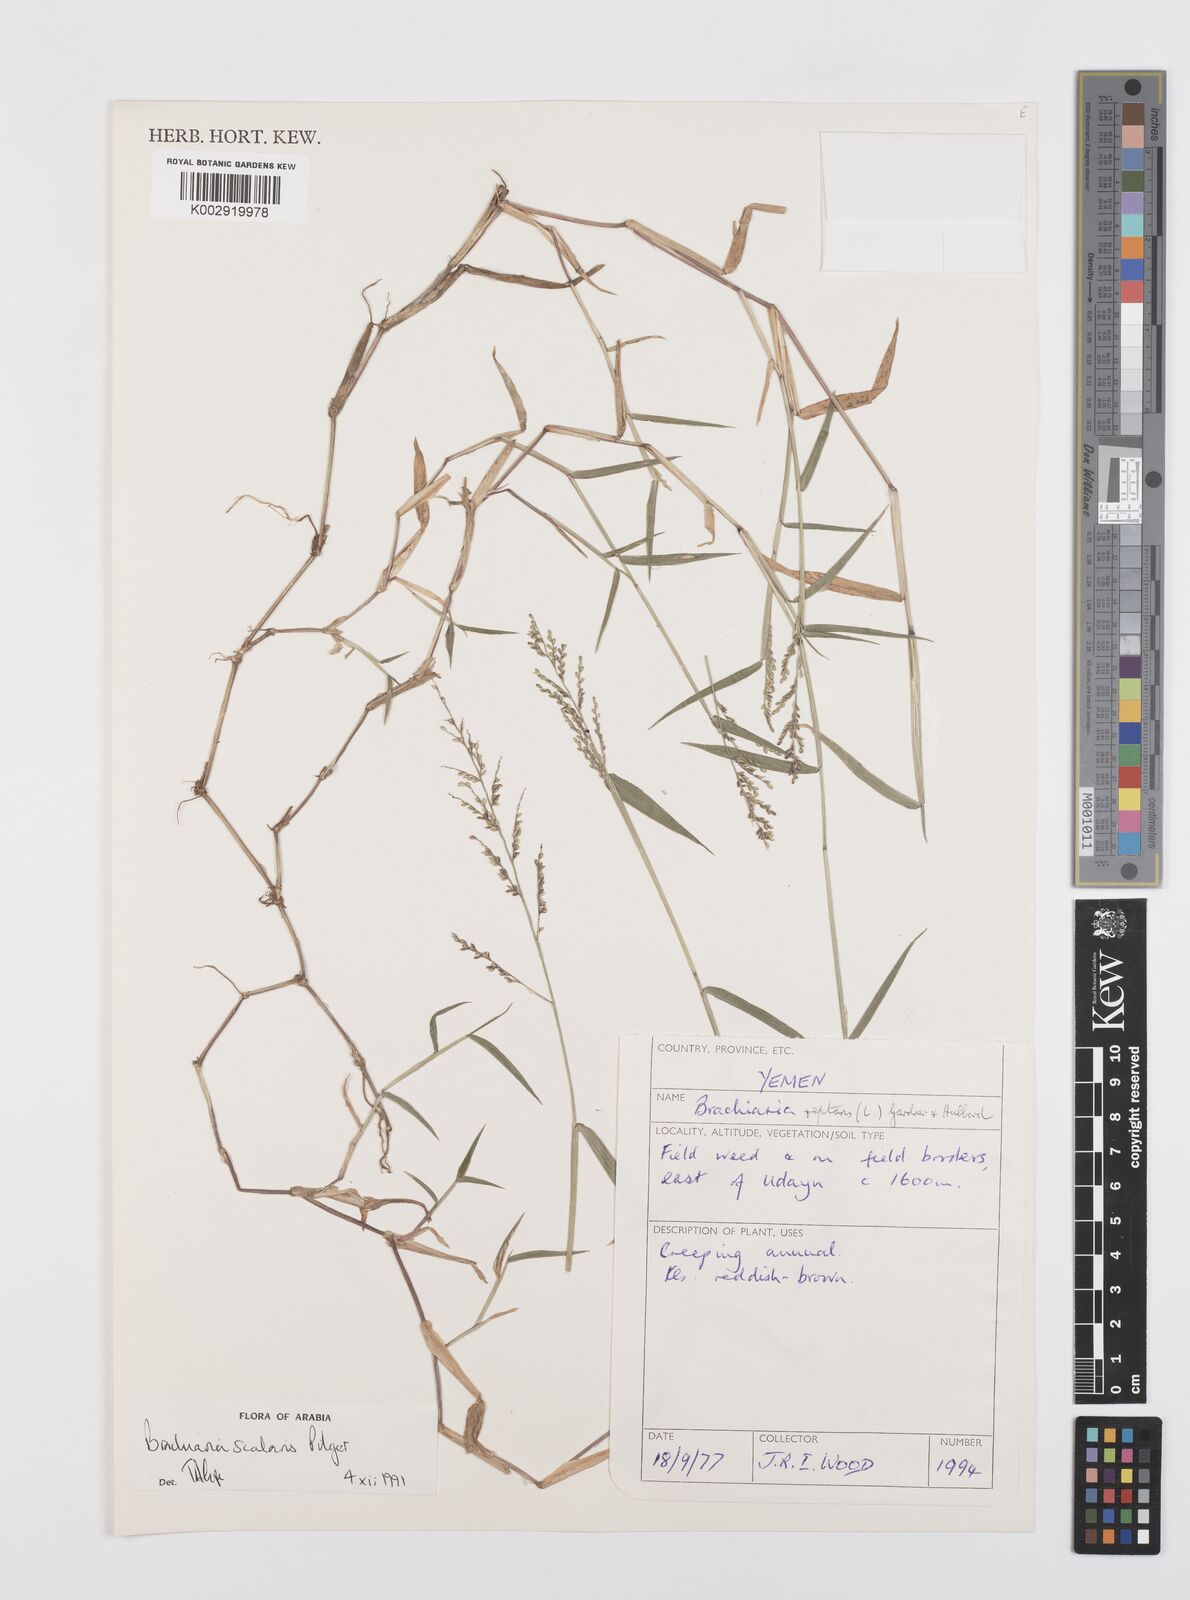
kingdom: Plantae
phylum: Tracheophyta
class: Liliopsida
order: Poales
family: Poaceae
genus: Urochloa
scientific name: Urochloa comata
